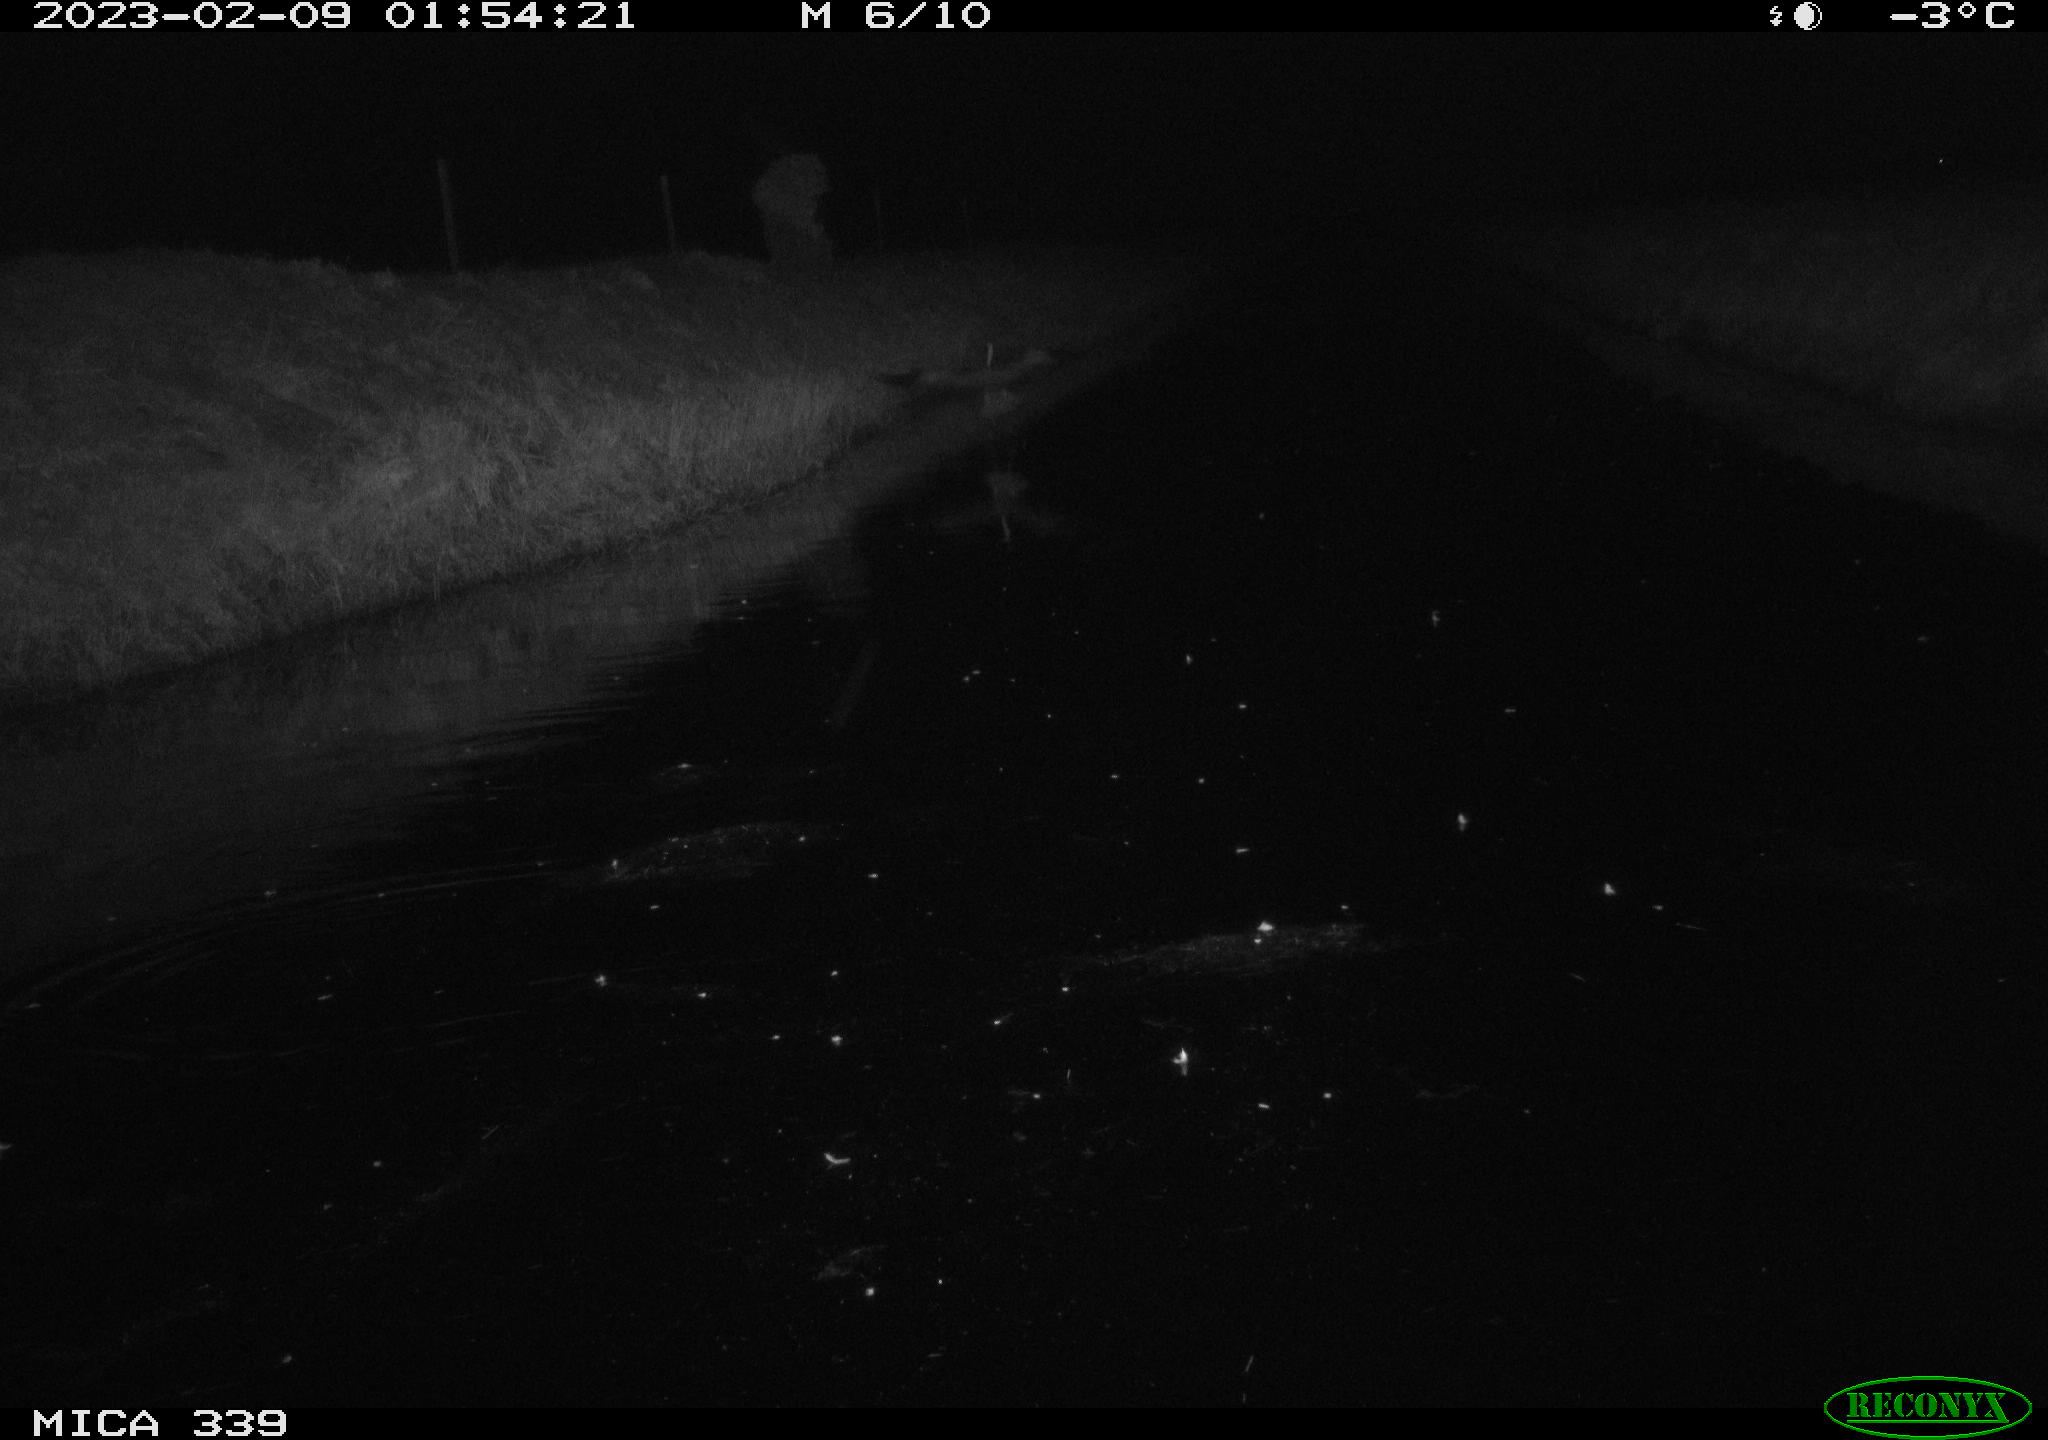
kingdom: Animalia
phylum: Chordata
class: Aves
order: Pelecaniformes
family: Ardeidae
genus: Ardea
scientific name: Ardea cinerea
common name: Grey heron
